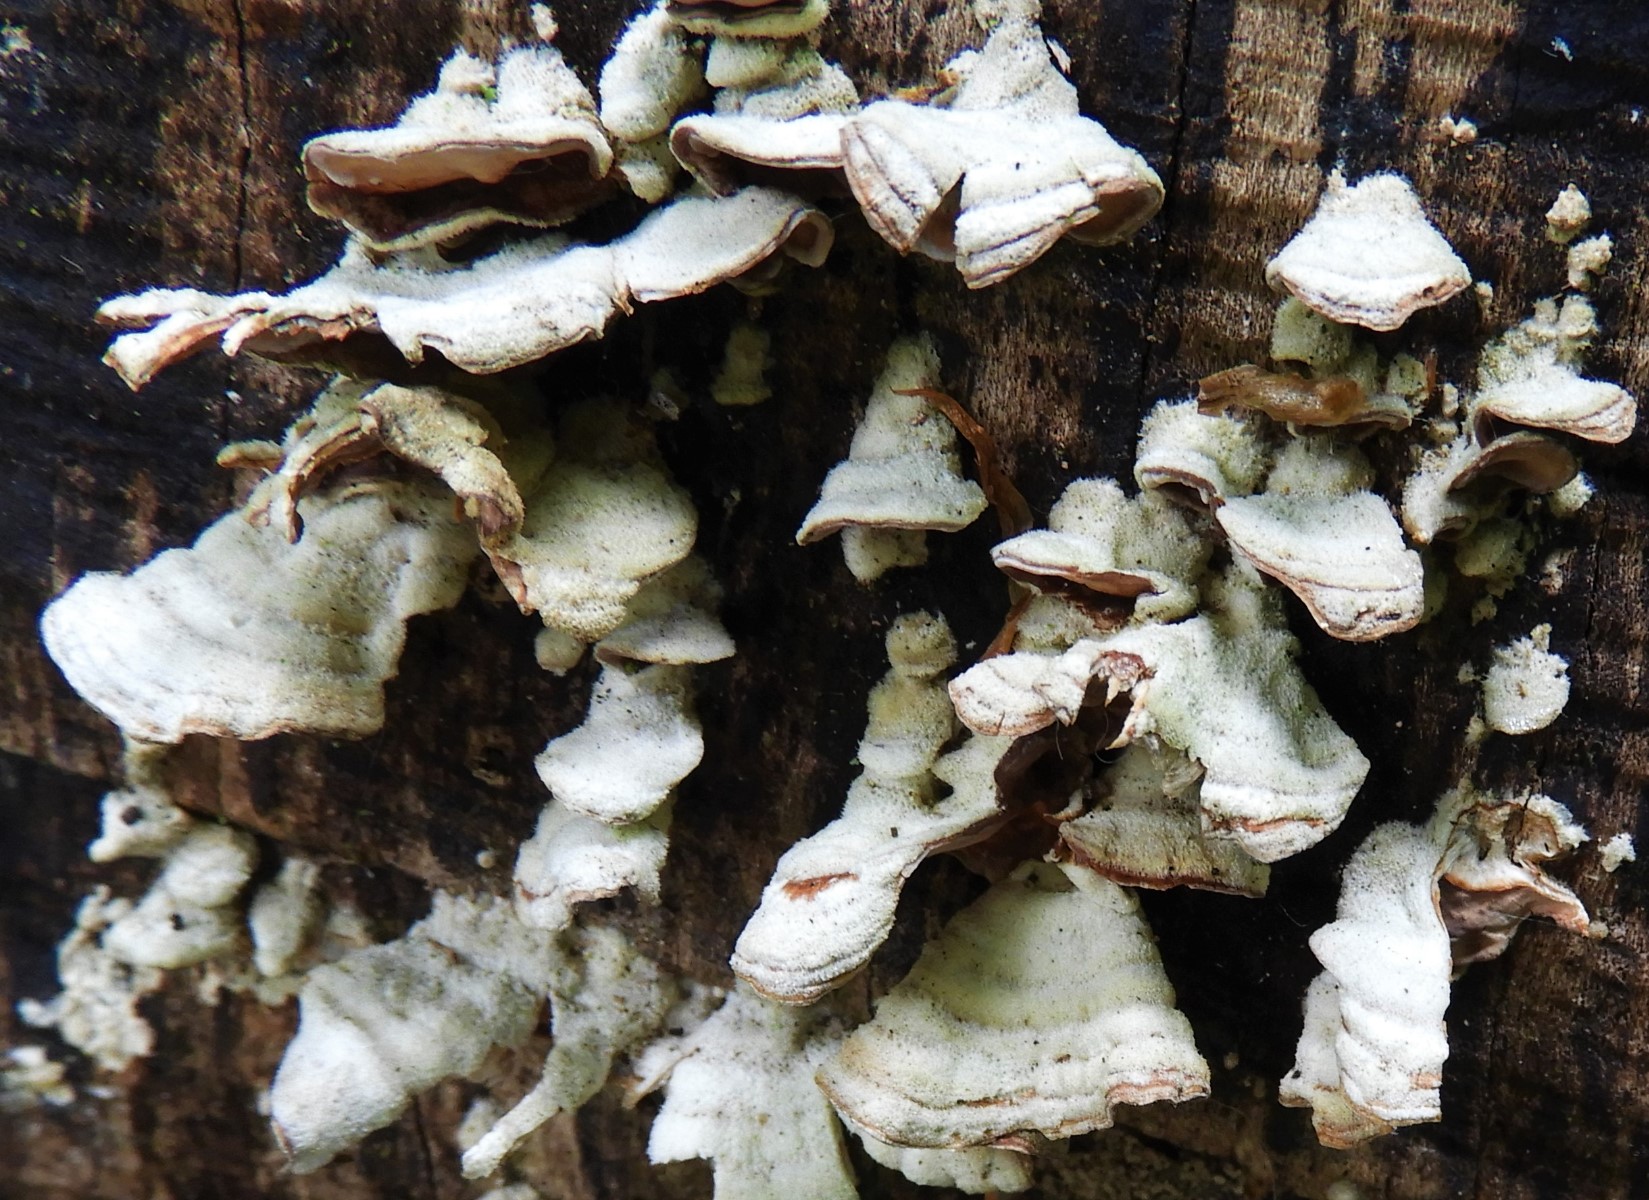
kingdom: Fungi
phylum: Basidiomycota
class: Agaricomycetes
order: Russulales
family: Stereaceae
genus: Stereum
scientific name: Stereum hirsutum
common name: håret lædersvamp
